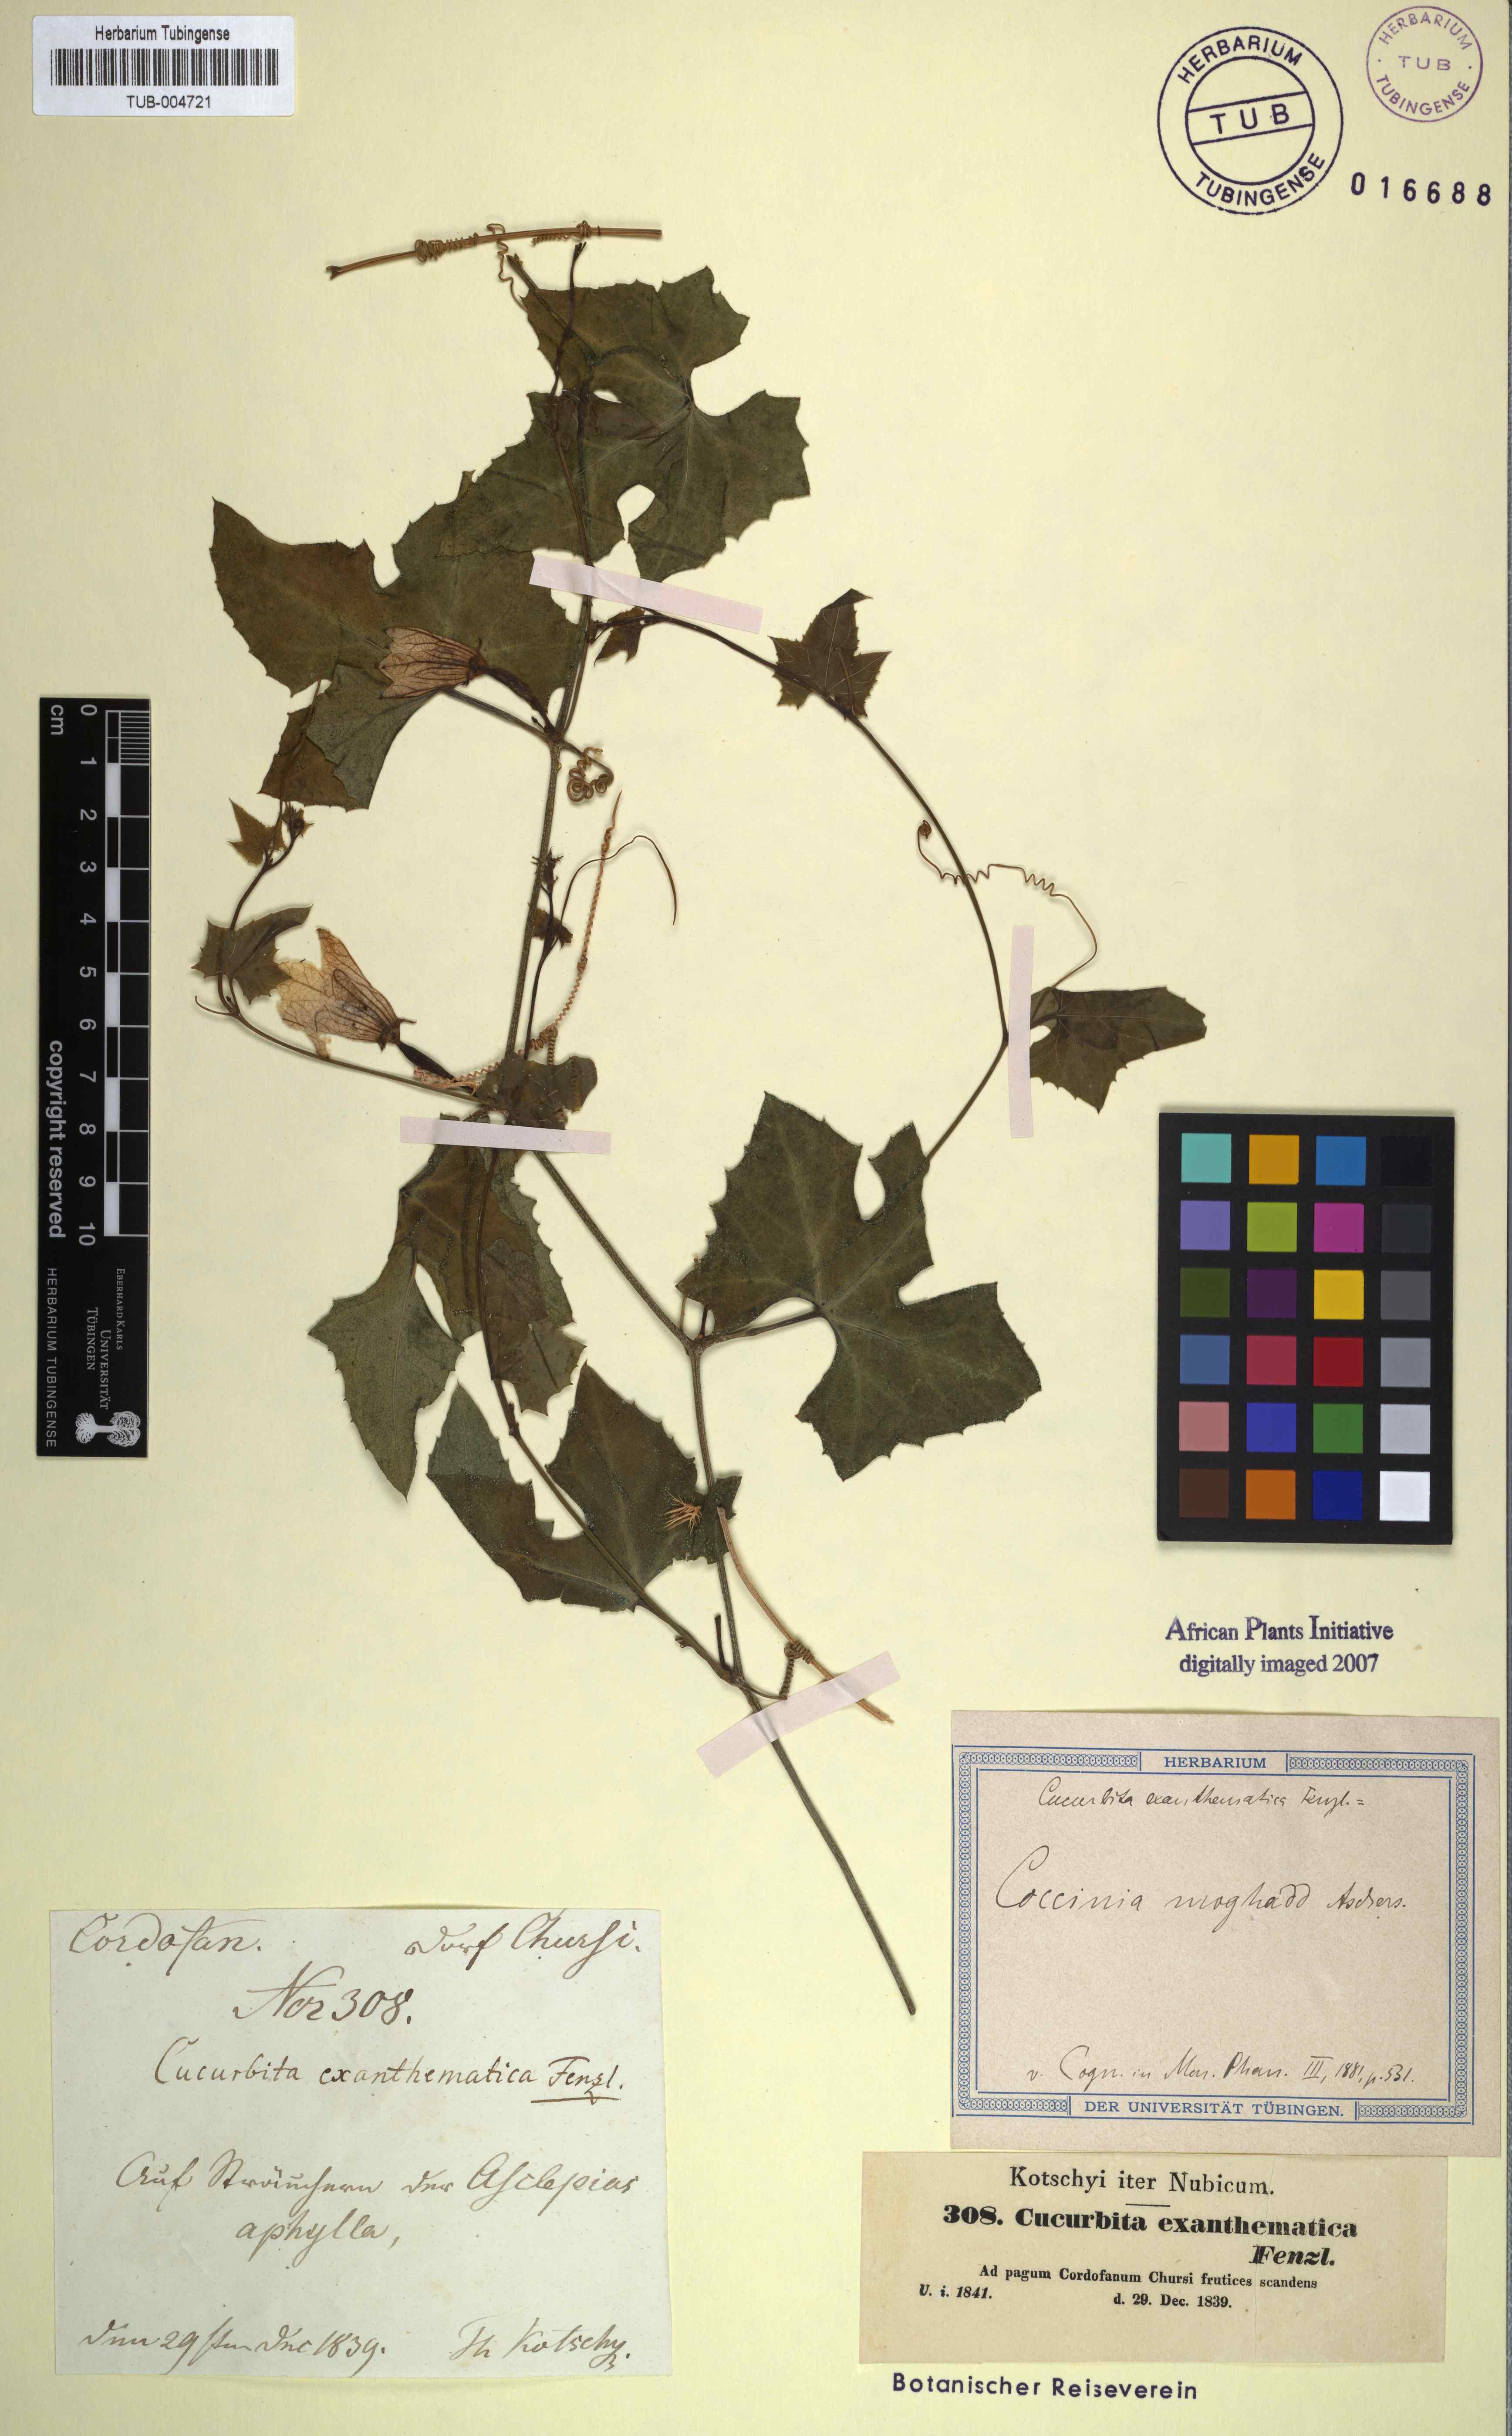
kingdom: Plantae
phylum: Tracheophyta
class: Magnoliopsida
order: Cucurbitales
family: Cucurbitaceae
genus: Coccinia
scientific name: Coccinia grandis
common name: Ivy gourd
